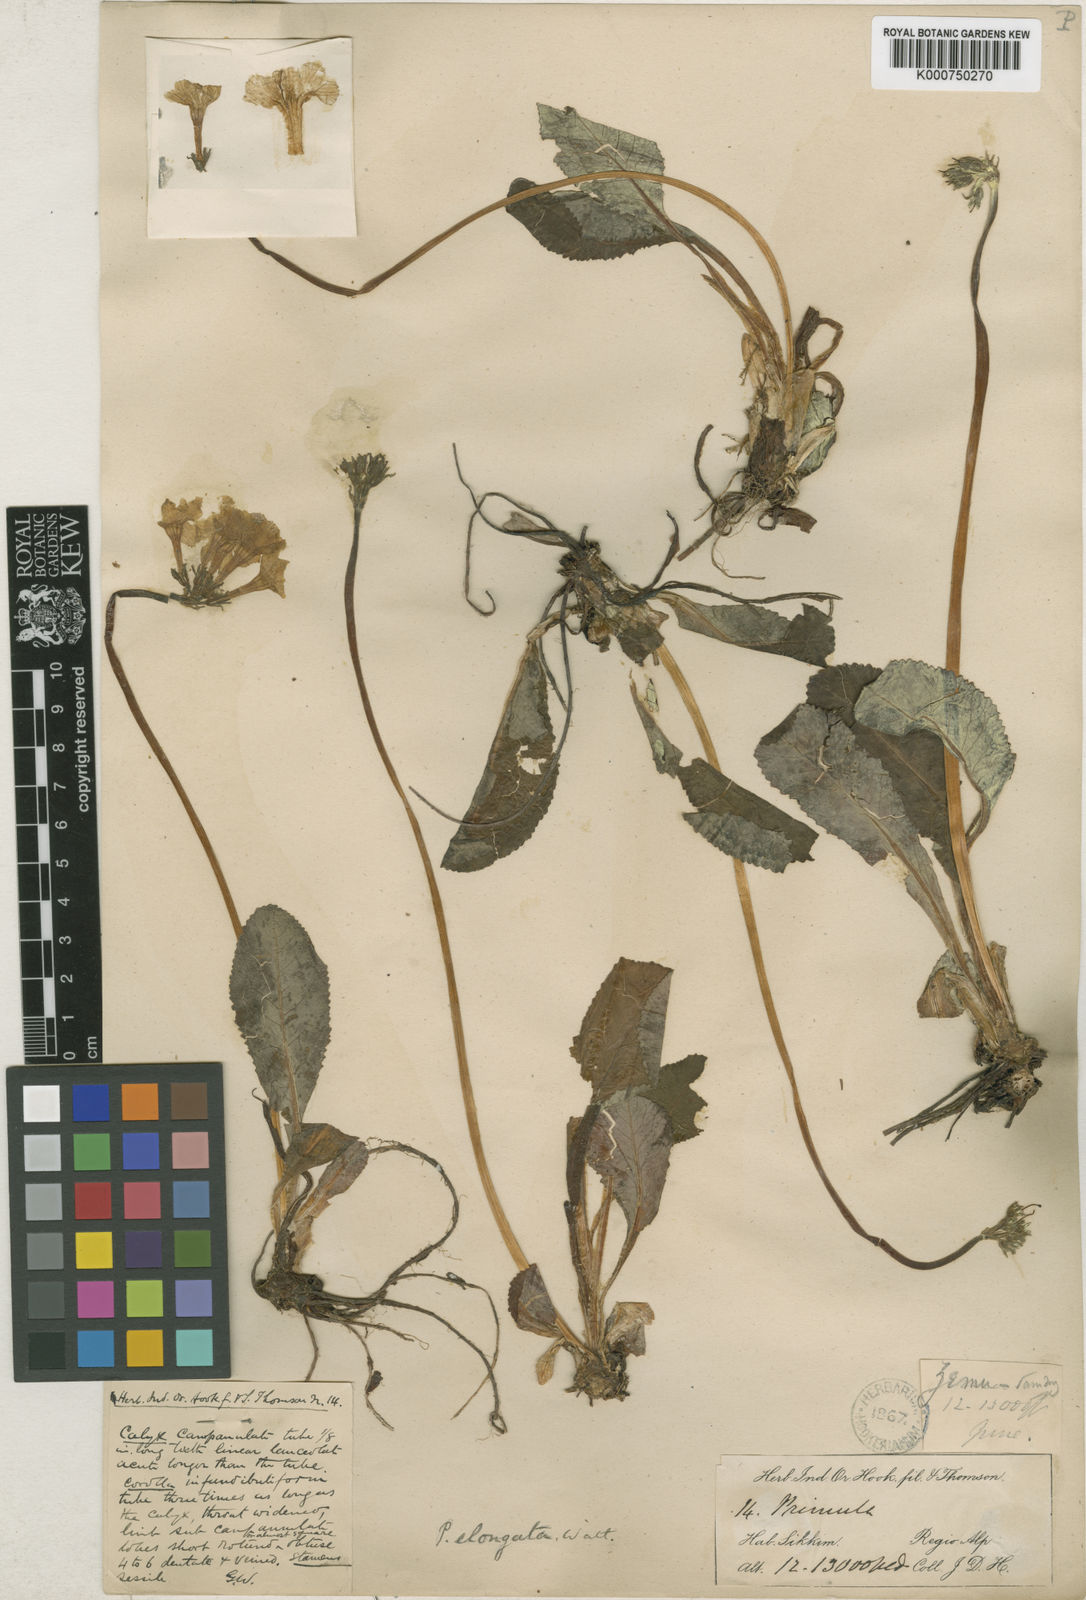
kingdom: Plantae
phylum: Tracheophyta
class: Magnoliopsida
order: Ericales
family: Primulaceae
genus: Primula
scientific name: Primula elongata
